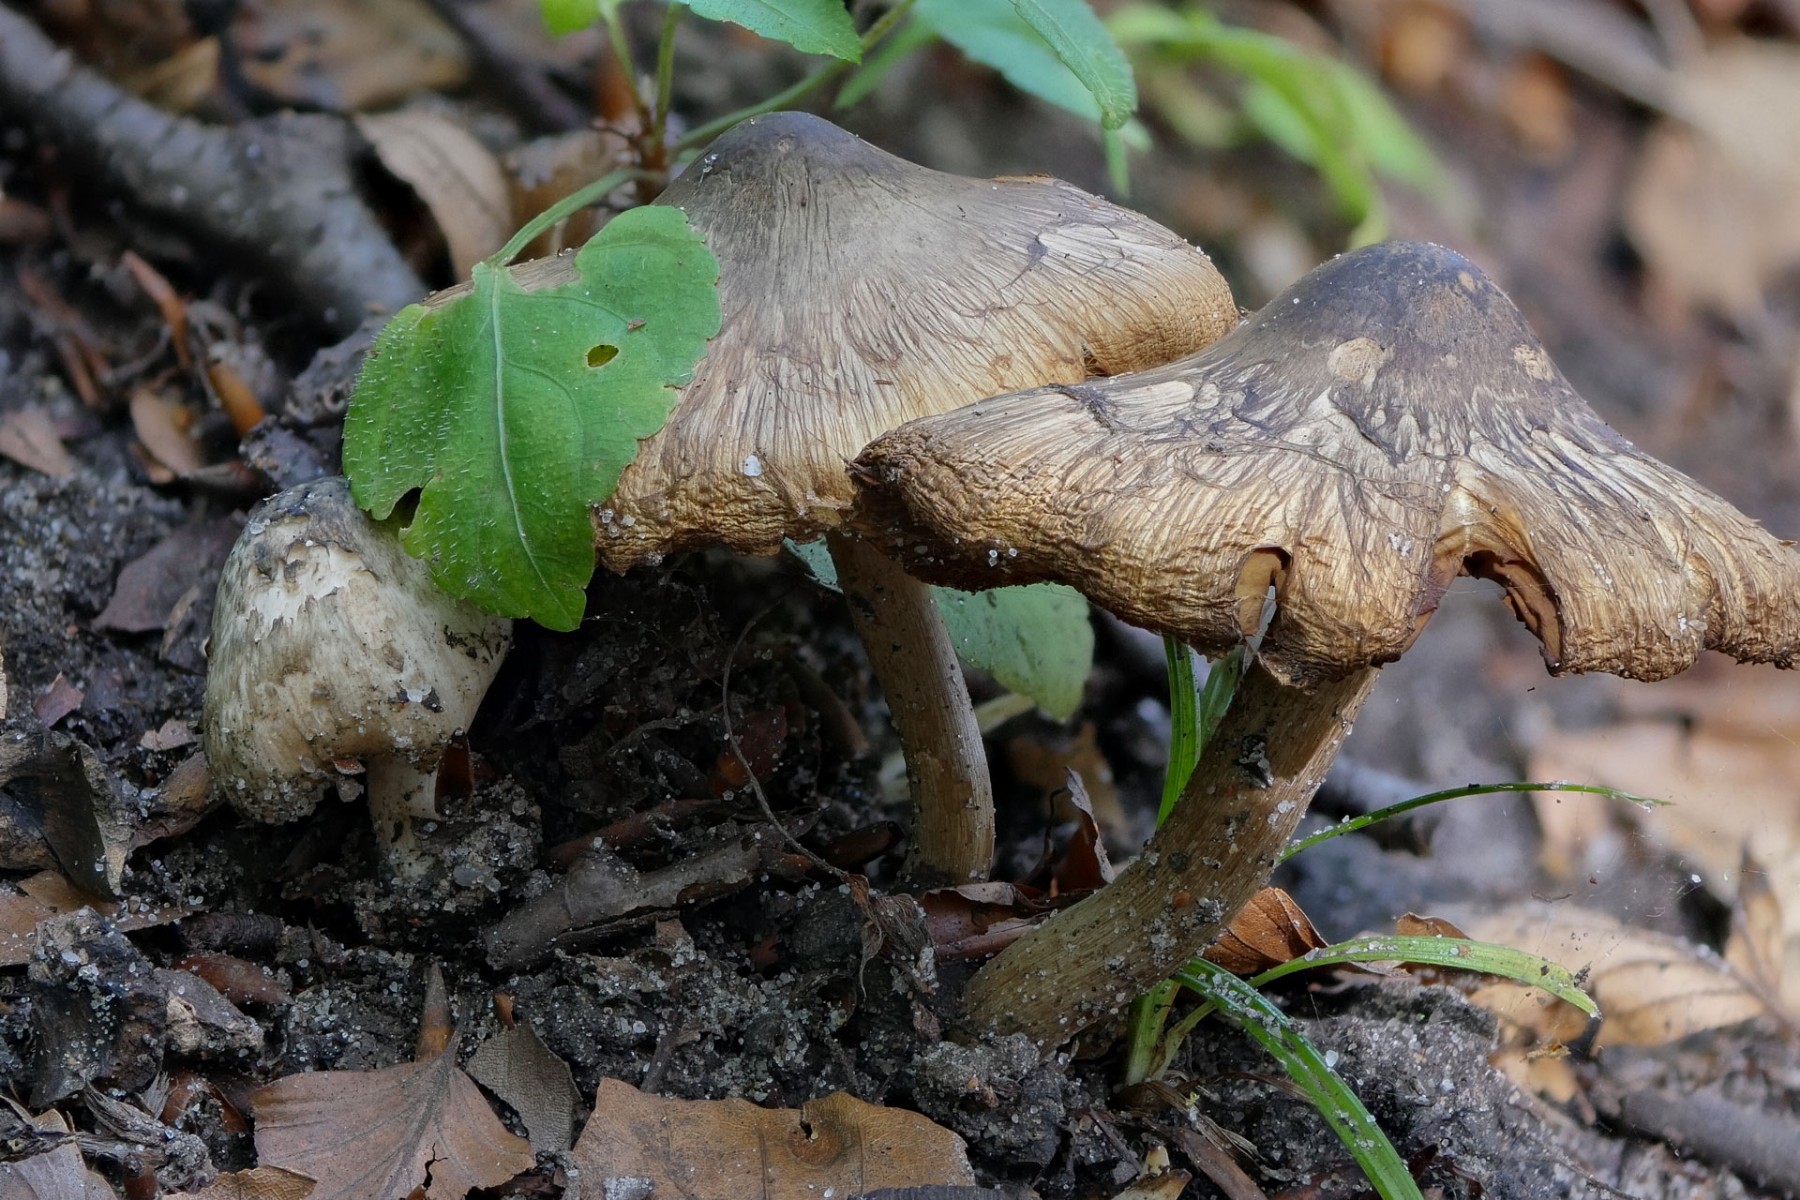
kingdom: Fungi
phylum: Basidiomycota
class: Agaricomycetes
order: Agaricales
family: Inocybaceae
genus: Inocybe
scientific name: Inocybe corydalina
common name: grønpuklet trævlhat
